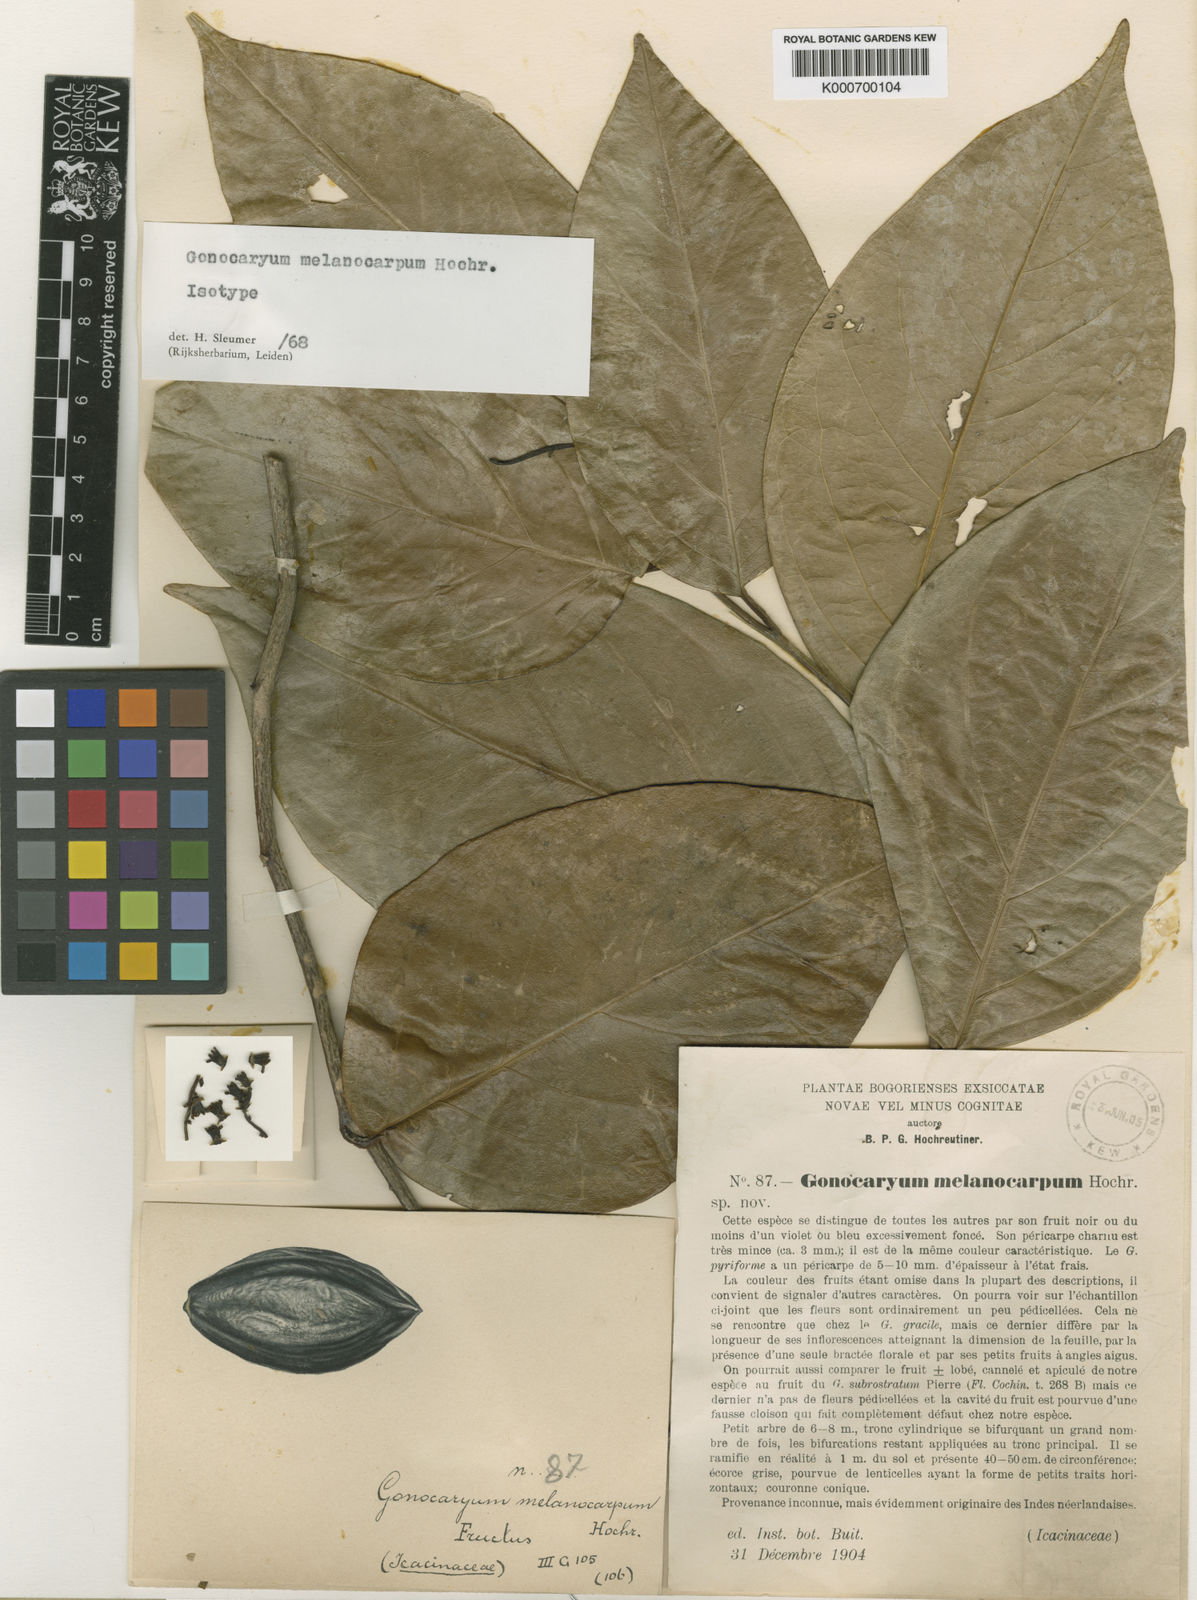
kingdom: Plantae
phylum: Tracheophyta
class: Magnoliopsida
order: Cardiopteridales
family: Cardiopteridaceae
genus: Gonocaryum
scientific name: Gonocaryum litorale
